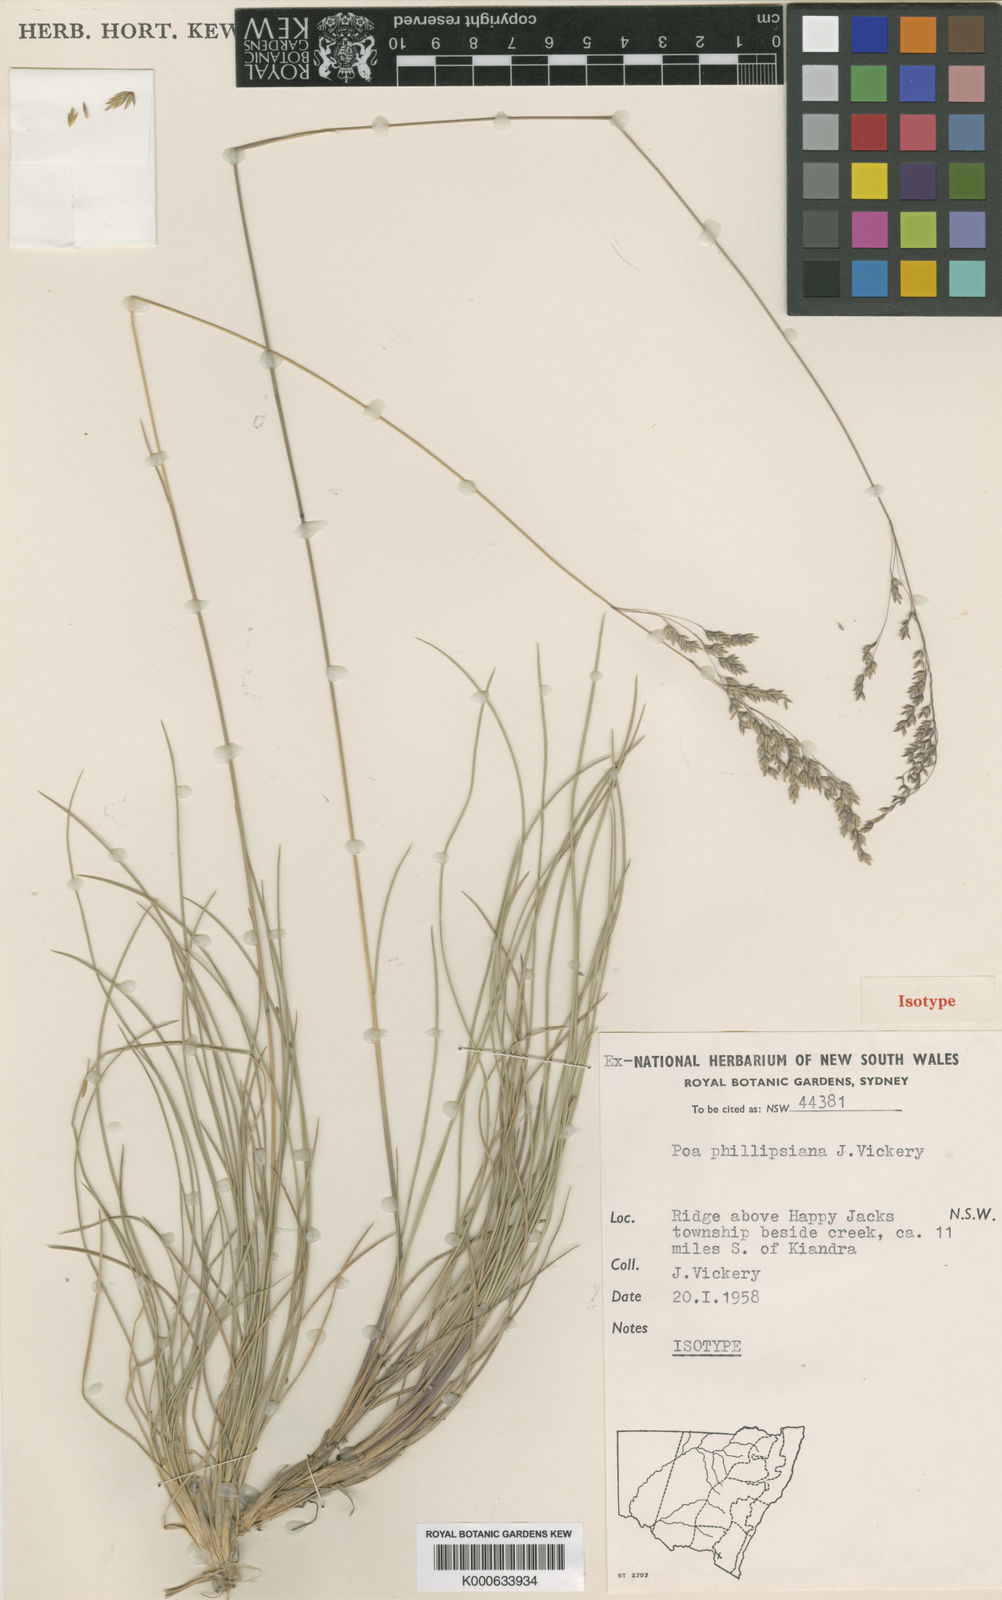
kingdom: Plantae
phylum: Tracheophyta
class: Liliopsida
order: Poales
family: Poaceae
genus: Poa
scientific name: Poa phillipsiana
